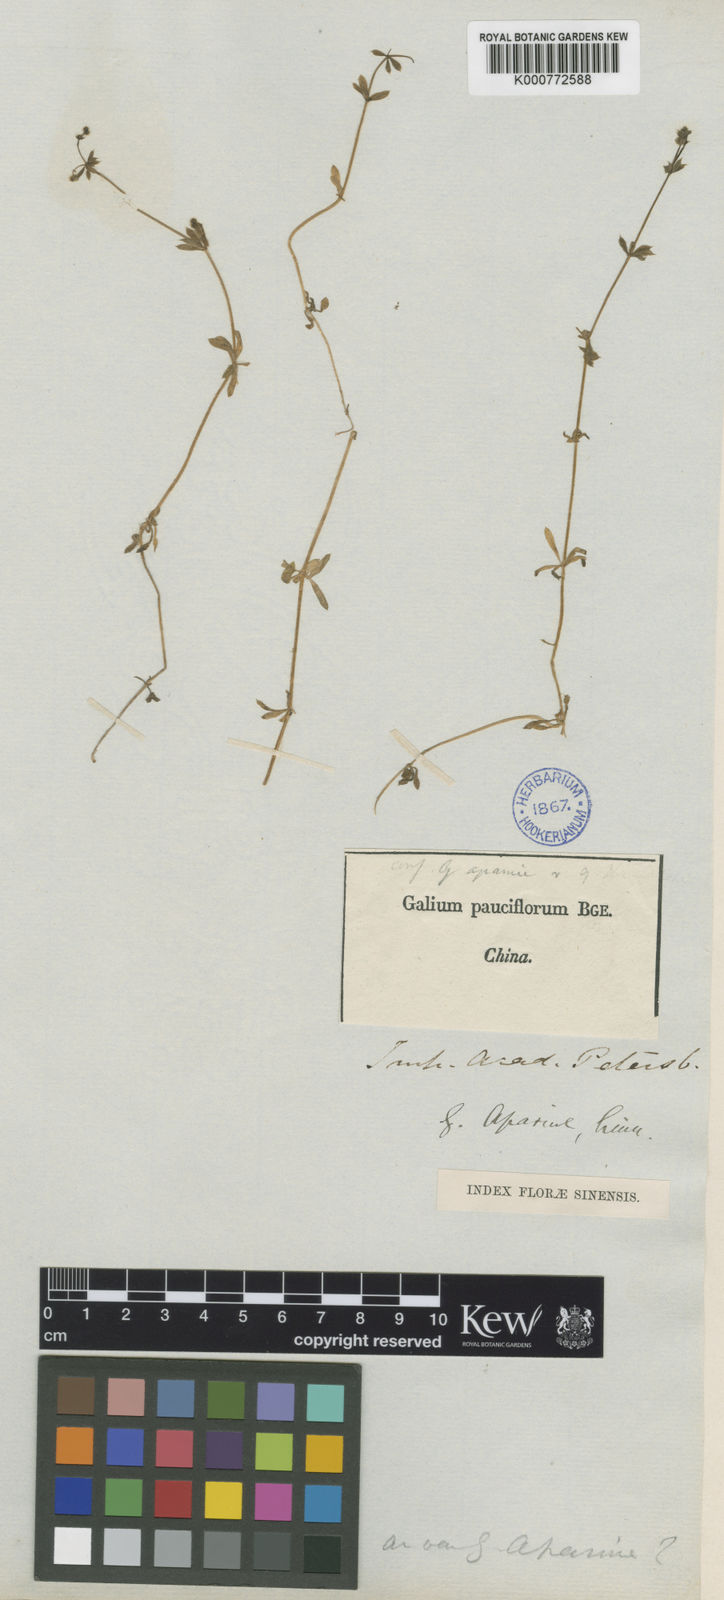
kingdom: Plantae
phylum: Tracheophyta
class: Magnoliopsida
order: Gentianales
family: Rubiaceae
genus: Galium
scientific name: Galium aparine
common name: Cleavers
